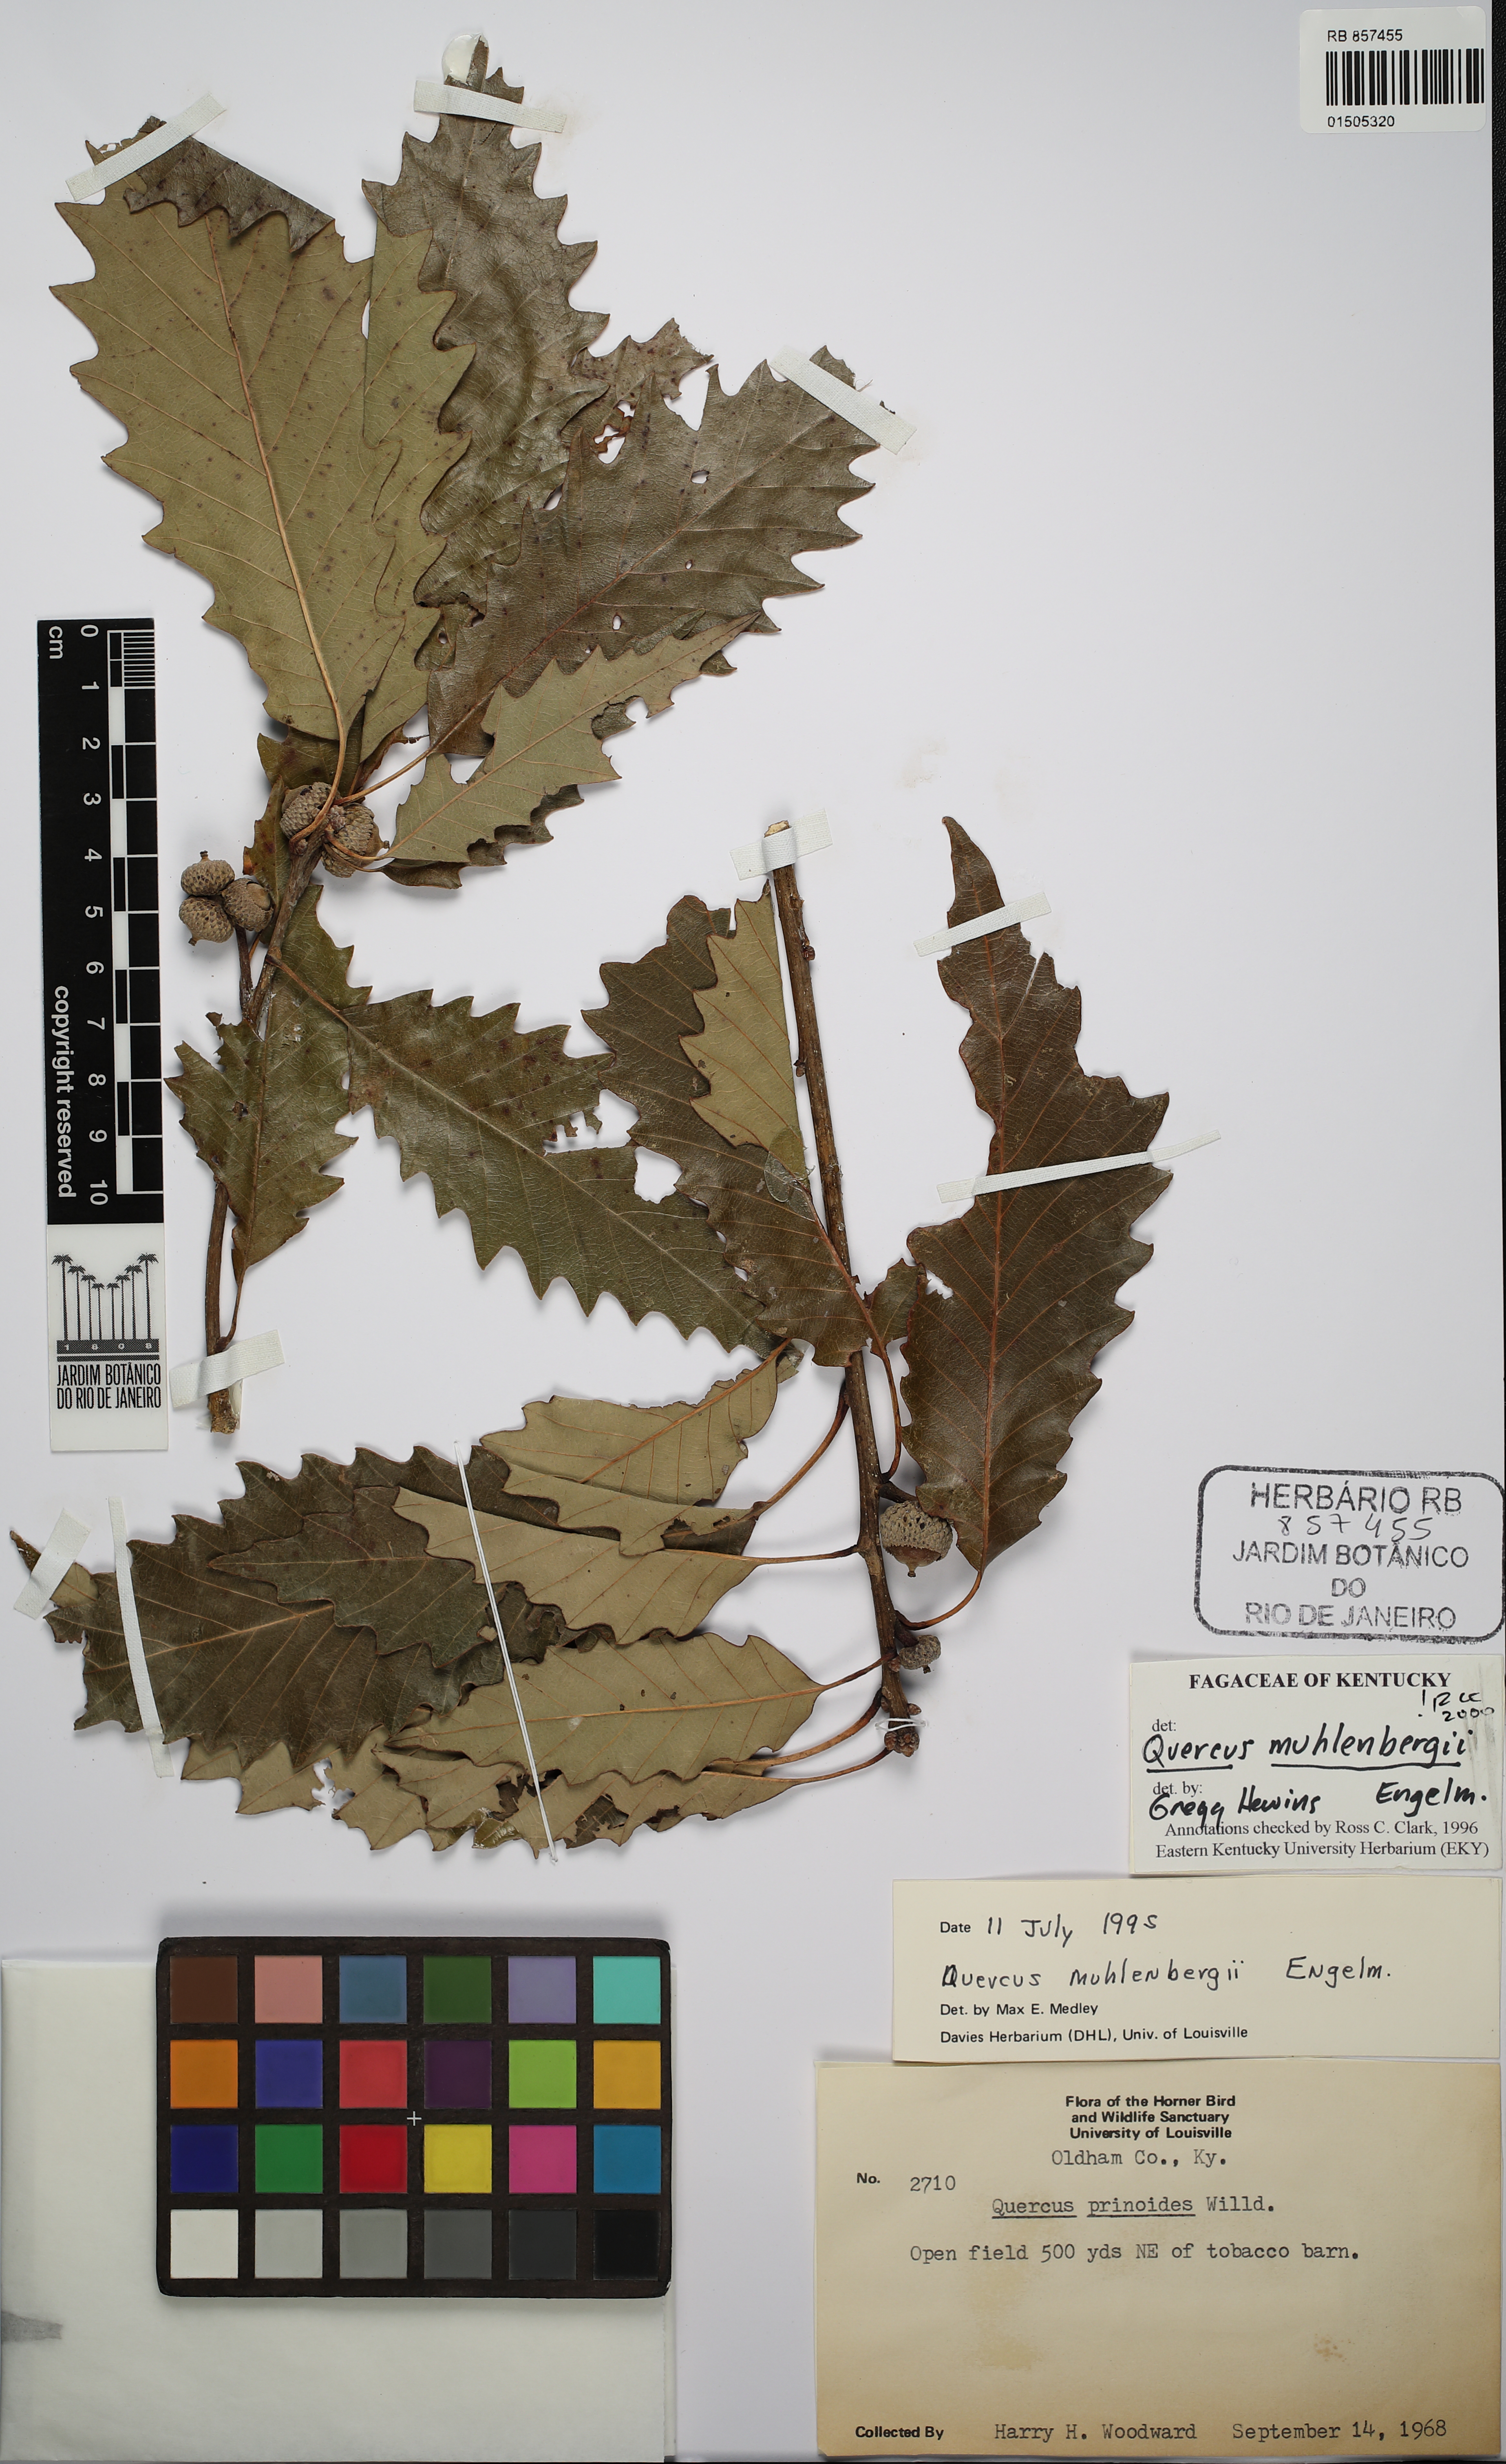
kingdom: Plantae
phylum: Tracheophyta
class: Magnoliopsida
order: Fagales
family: Fagaceae
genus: Quercus
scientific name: Quercus muehlenbergii
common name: Chinkapin oak
